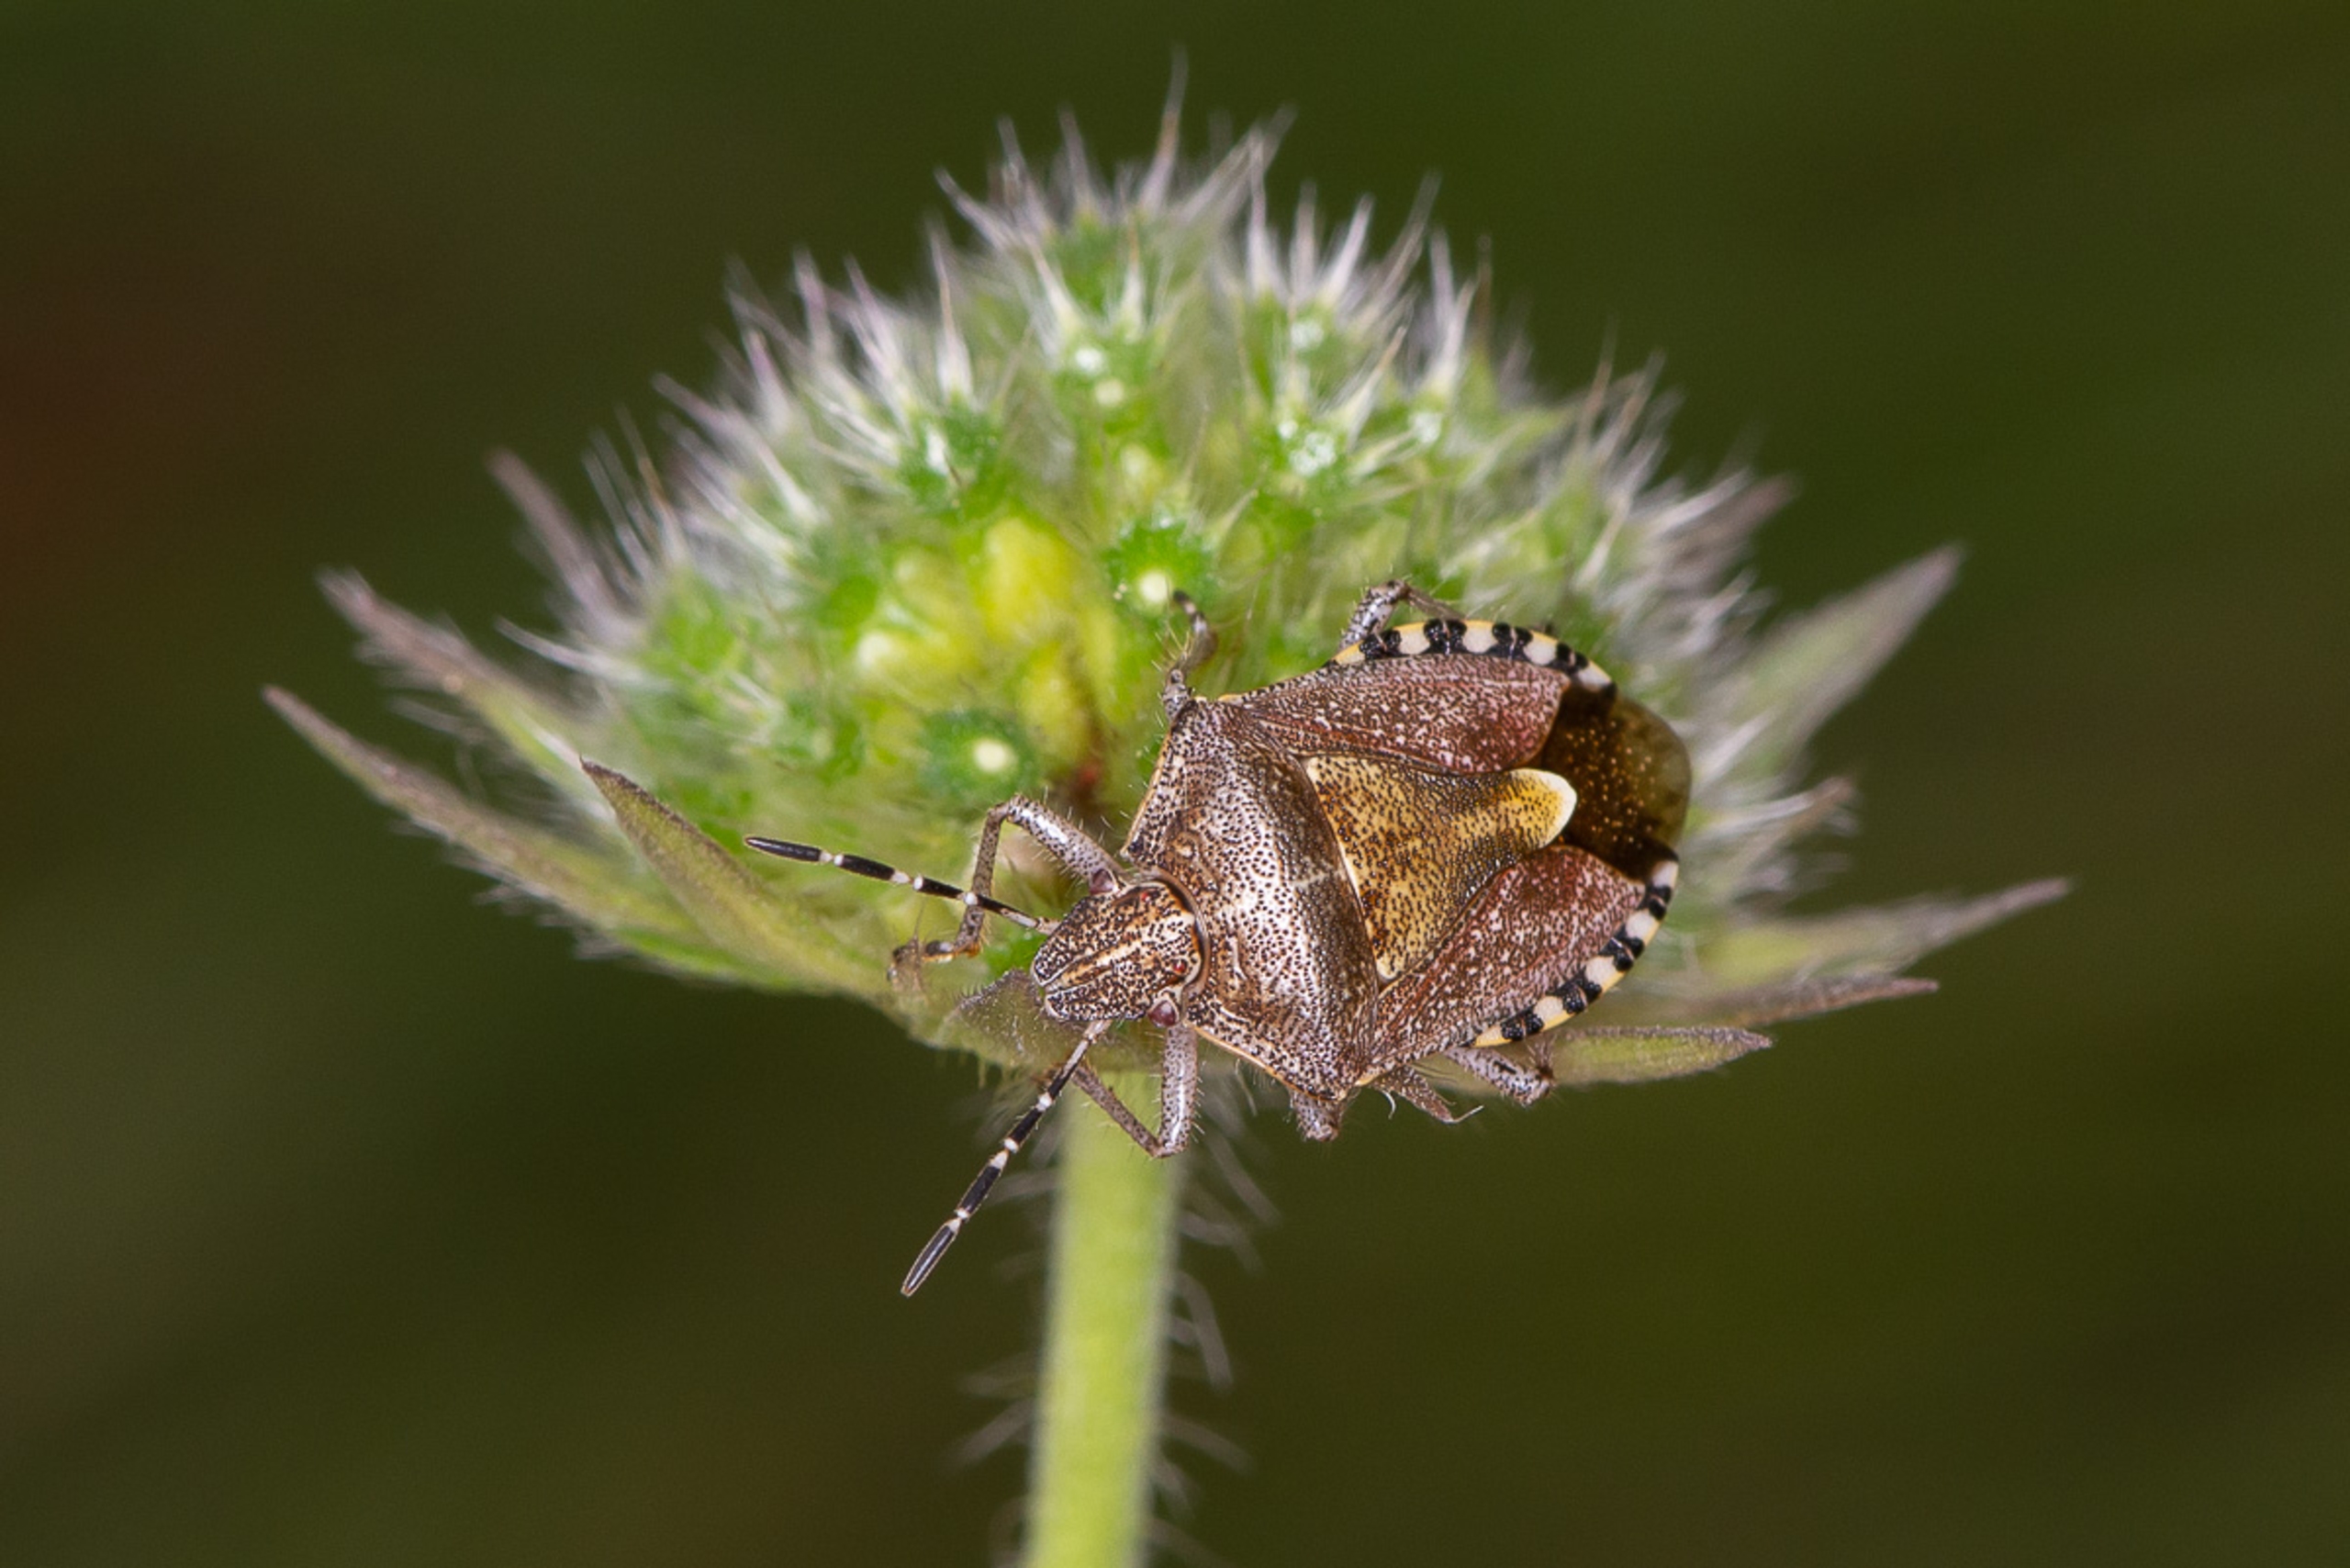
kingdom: Animalia
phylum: Arthropoda
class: Insecta
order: Hemiptera
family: Pentatomidae
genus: Dolycoris
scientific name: Dolycoris baccarum
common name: Almindelig bærtæge
